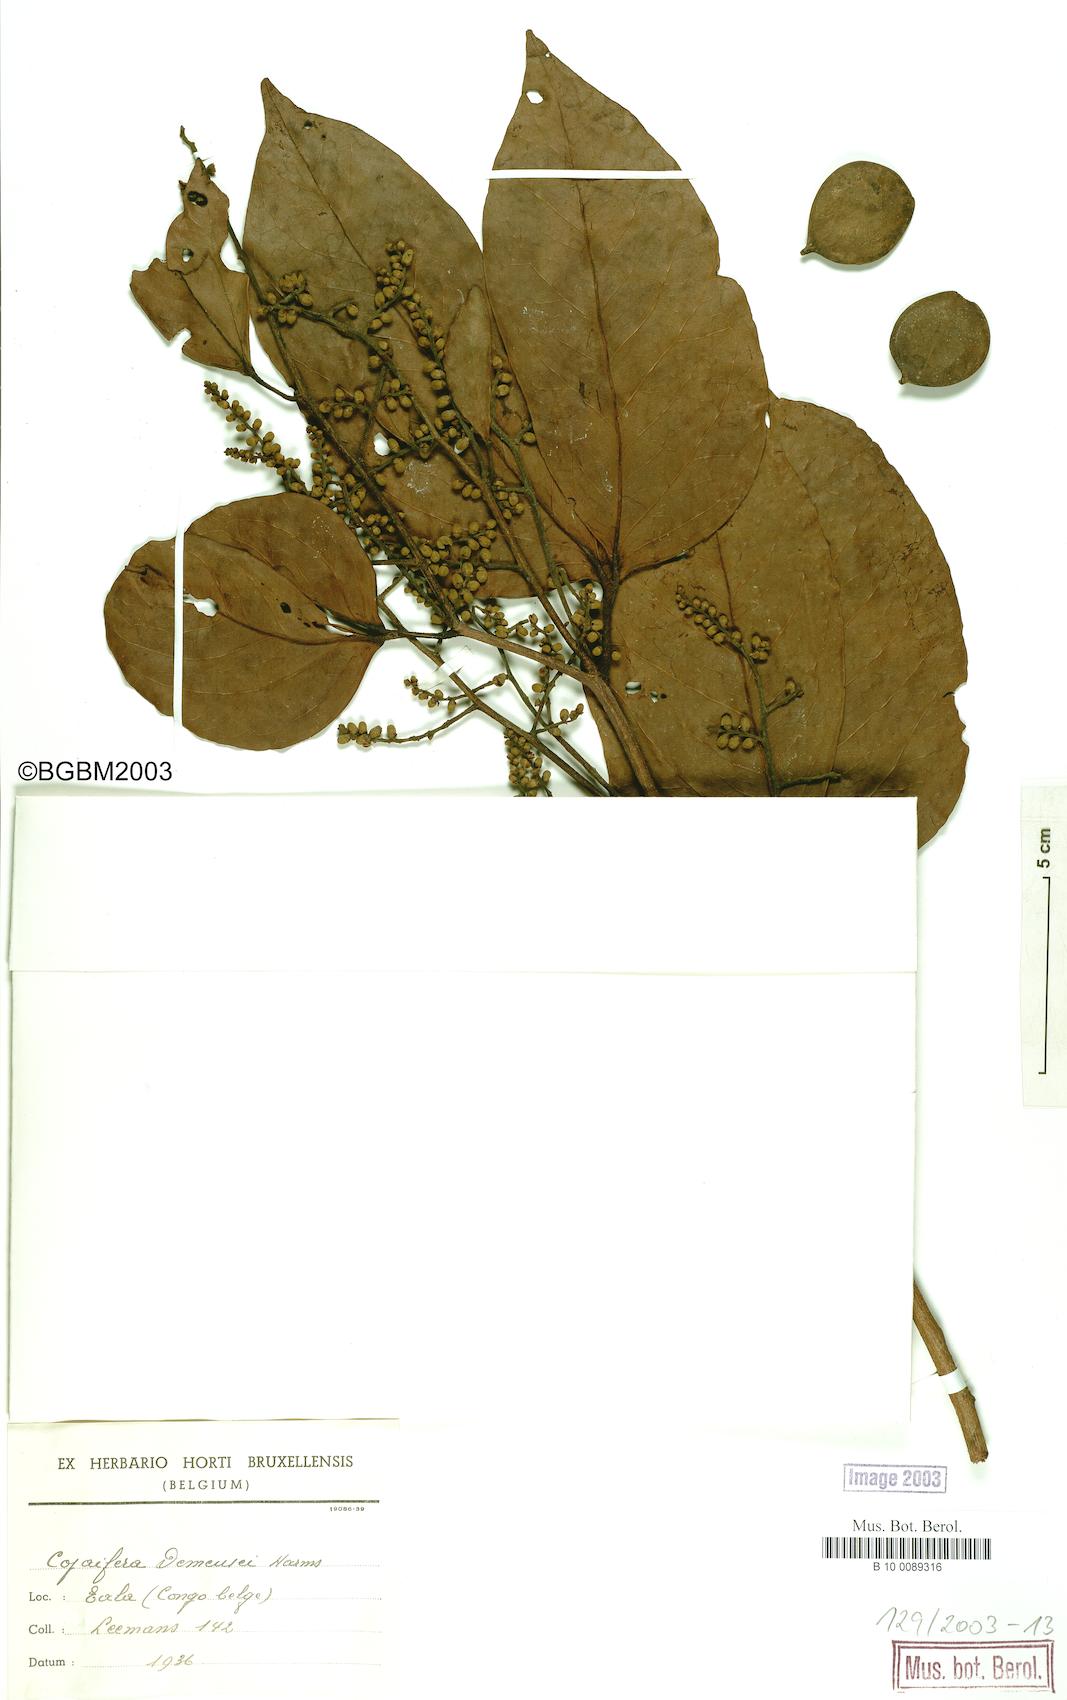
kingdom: Plantae
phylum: Tracheophyta
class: Magnoliopsida
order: Fabales
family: Fabaceae
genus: Guibourtia
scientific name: Guibourtia demeusei
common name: African rosewood
